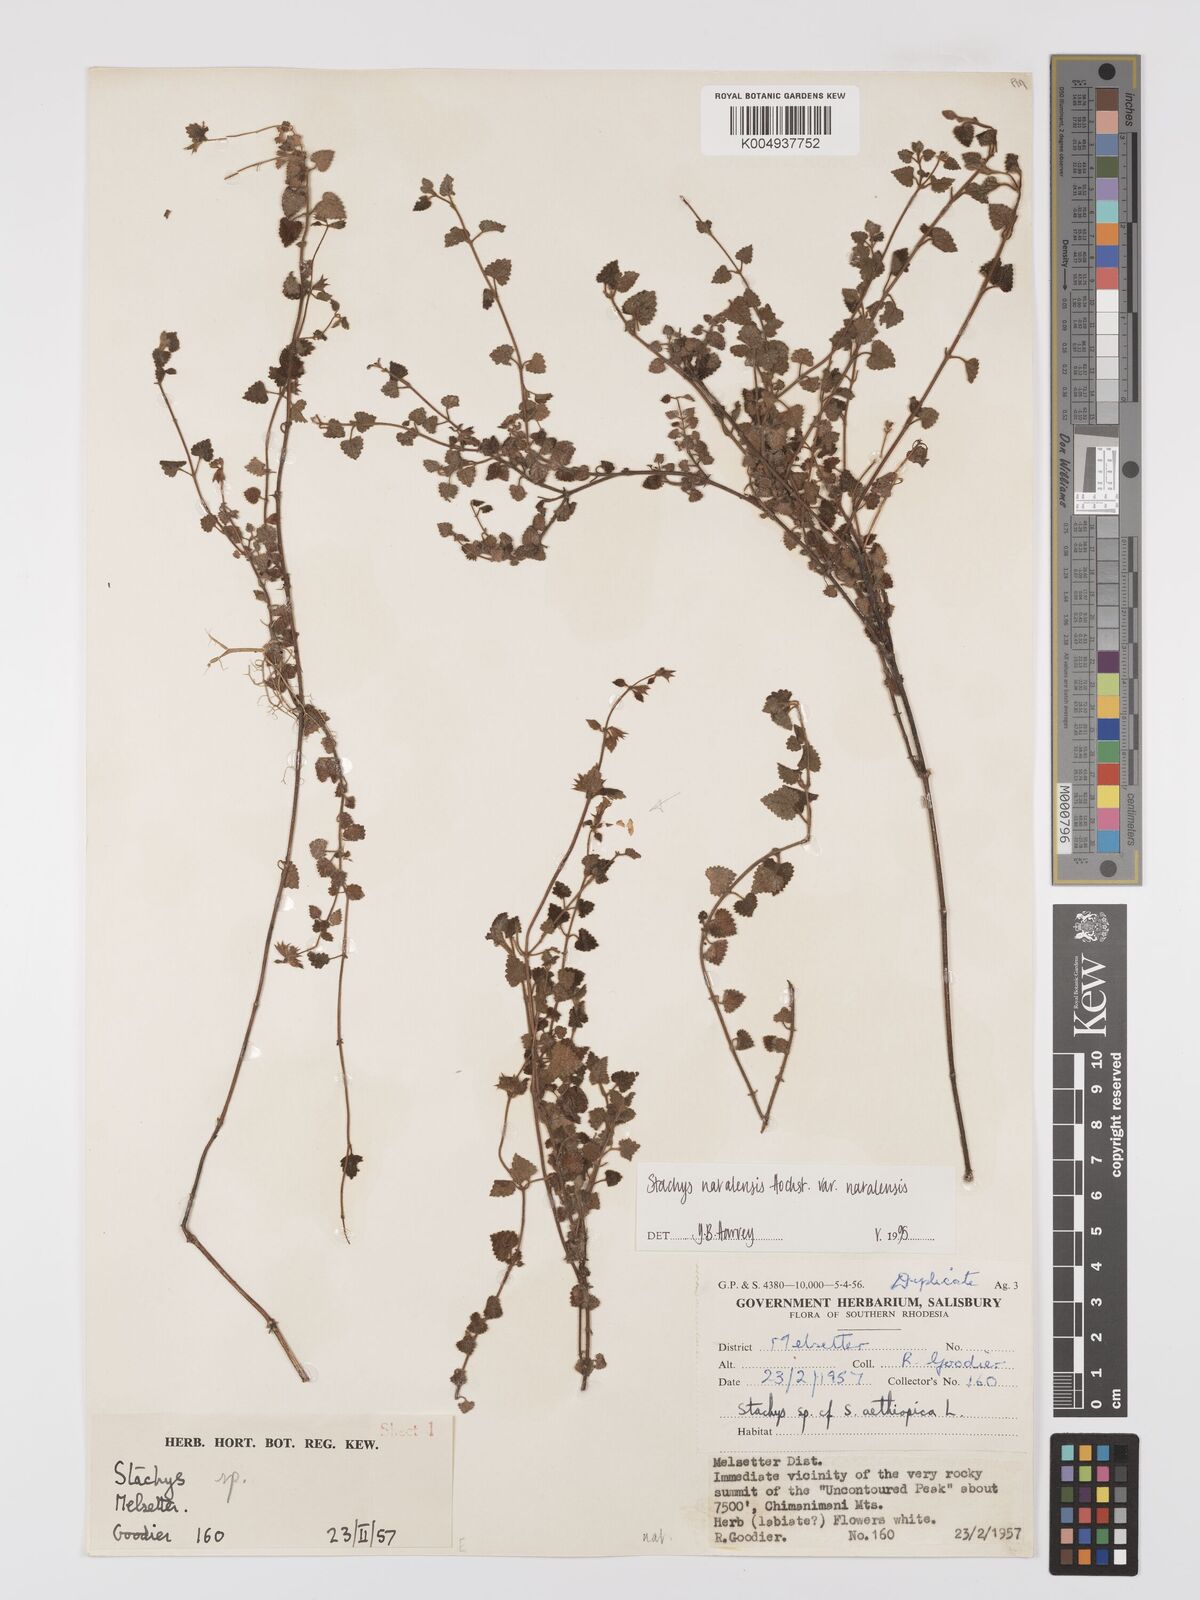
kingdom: Plantae
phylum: Tracheophyta
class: Magnoliopsida
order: Lamiales
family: Lamiaceae
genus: Stachys
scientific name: Stachys natalensis
